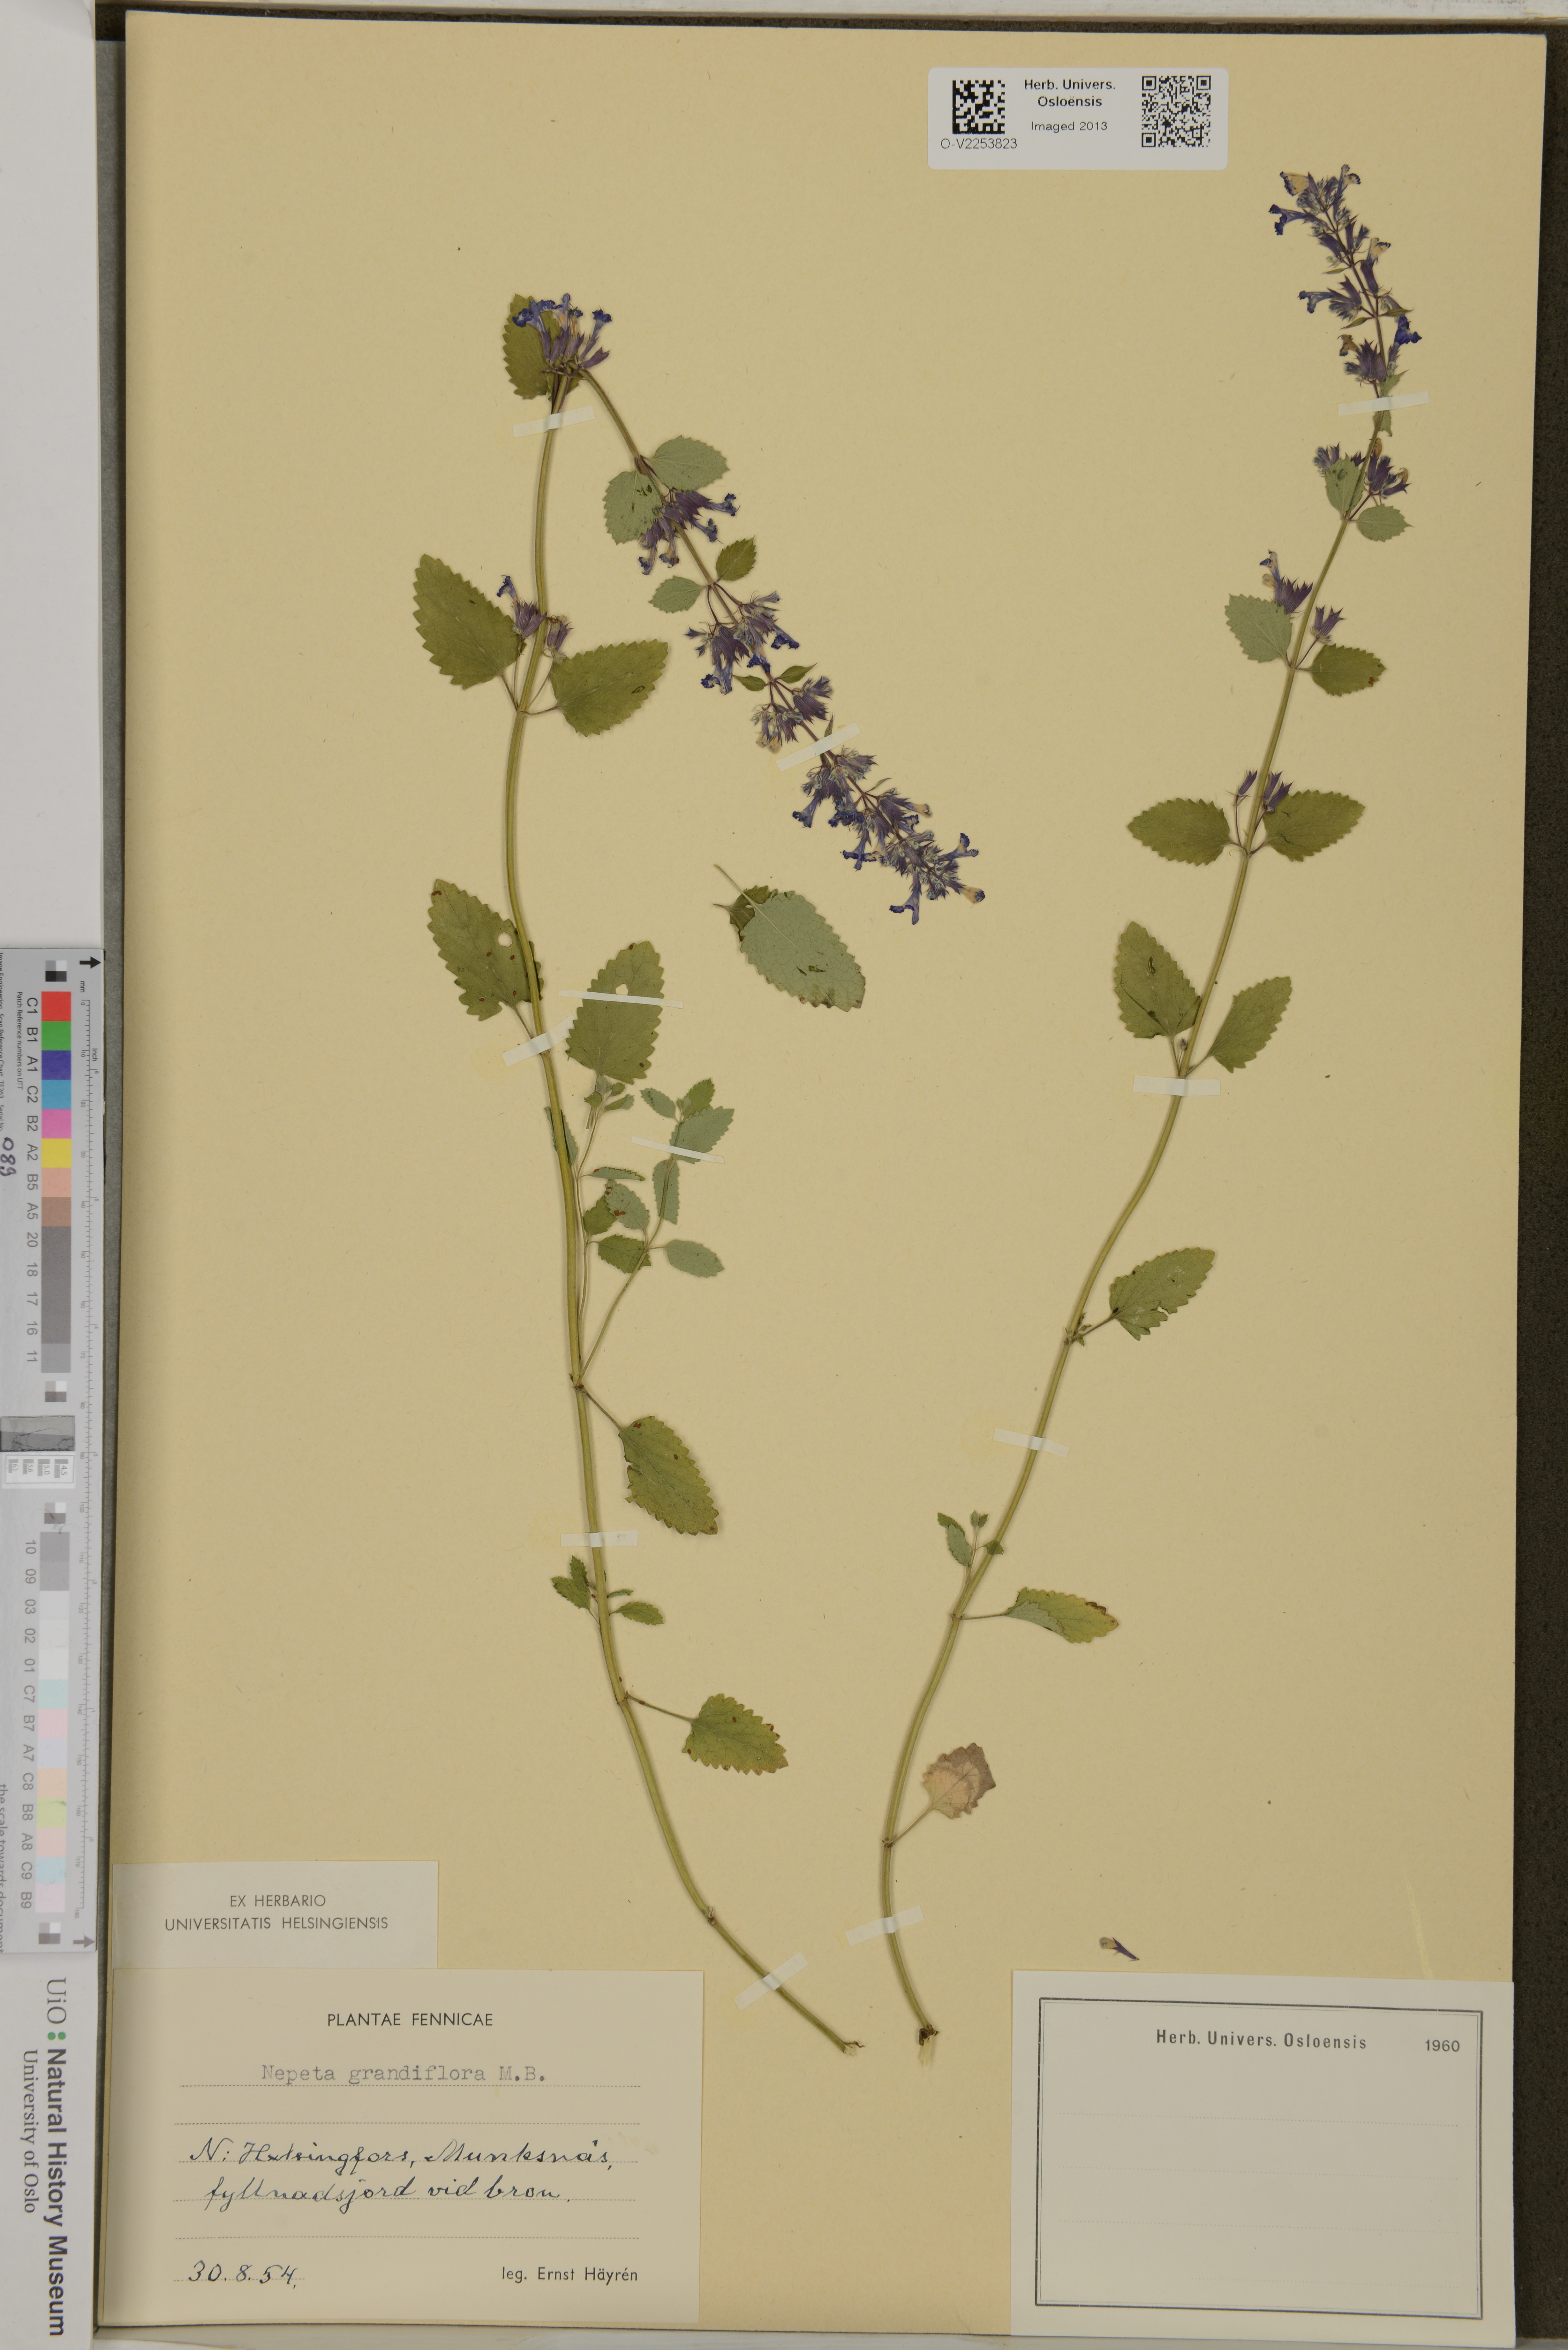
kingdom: Plantae
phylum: Tracheophyta
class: Magnoliopsida
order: Lamiales
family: Lamiaceae
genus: Nepeta
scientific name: Nepeta grandiflora
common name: Caucasus catmint
